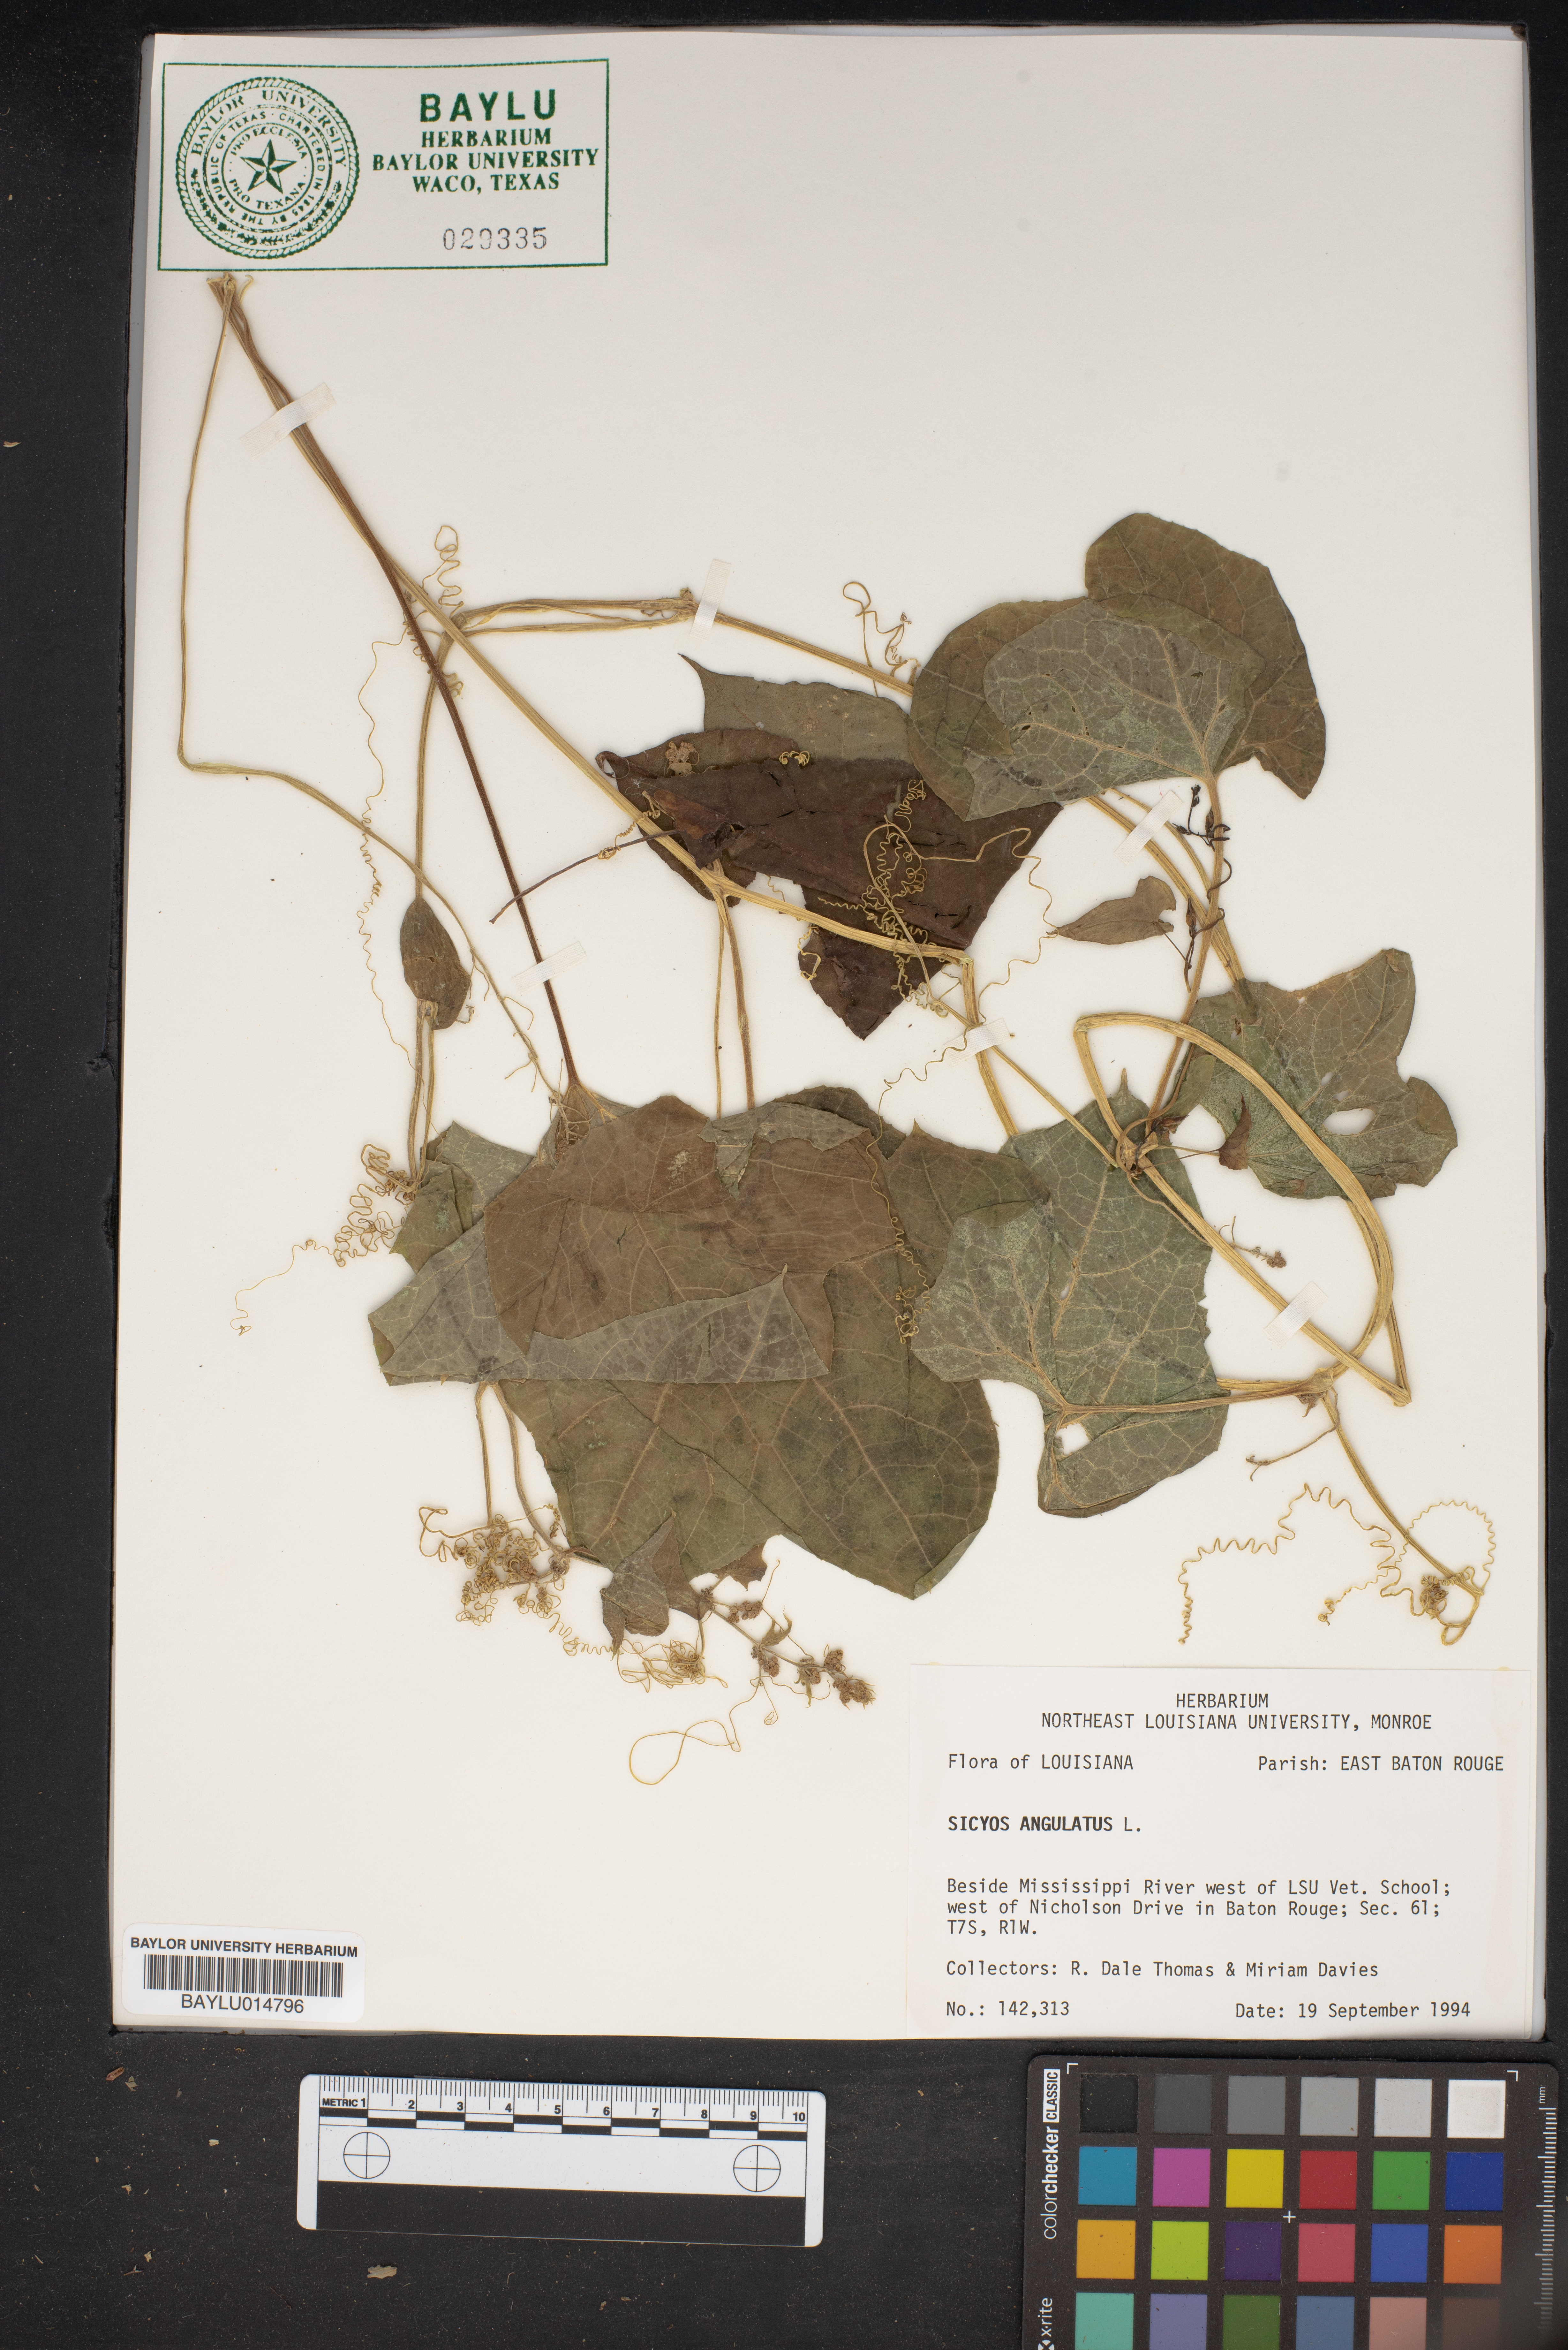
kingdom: Plantae
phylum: Tracheophyta
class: Magnoliopsida
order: Cucurbitales
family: Cucurbitaceae
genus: Sicyos
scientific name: Sicyos angulatus
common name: Angled burr cucumber
